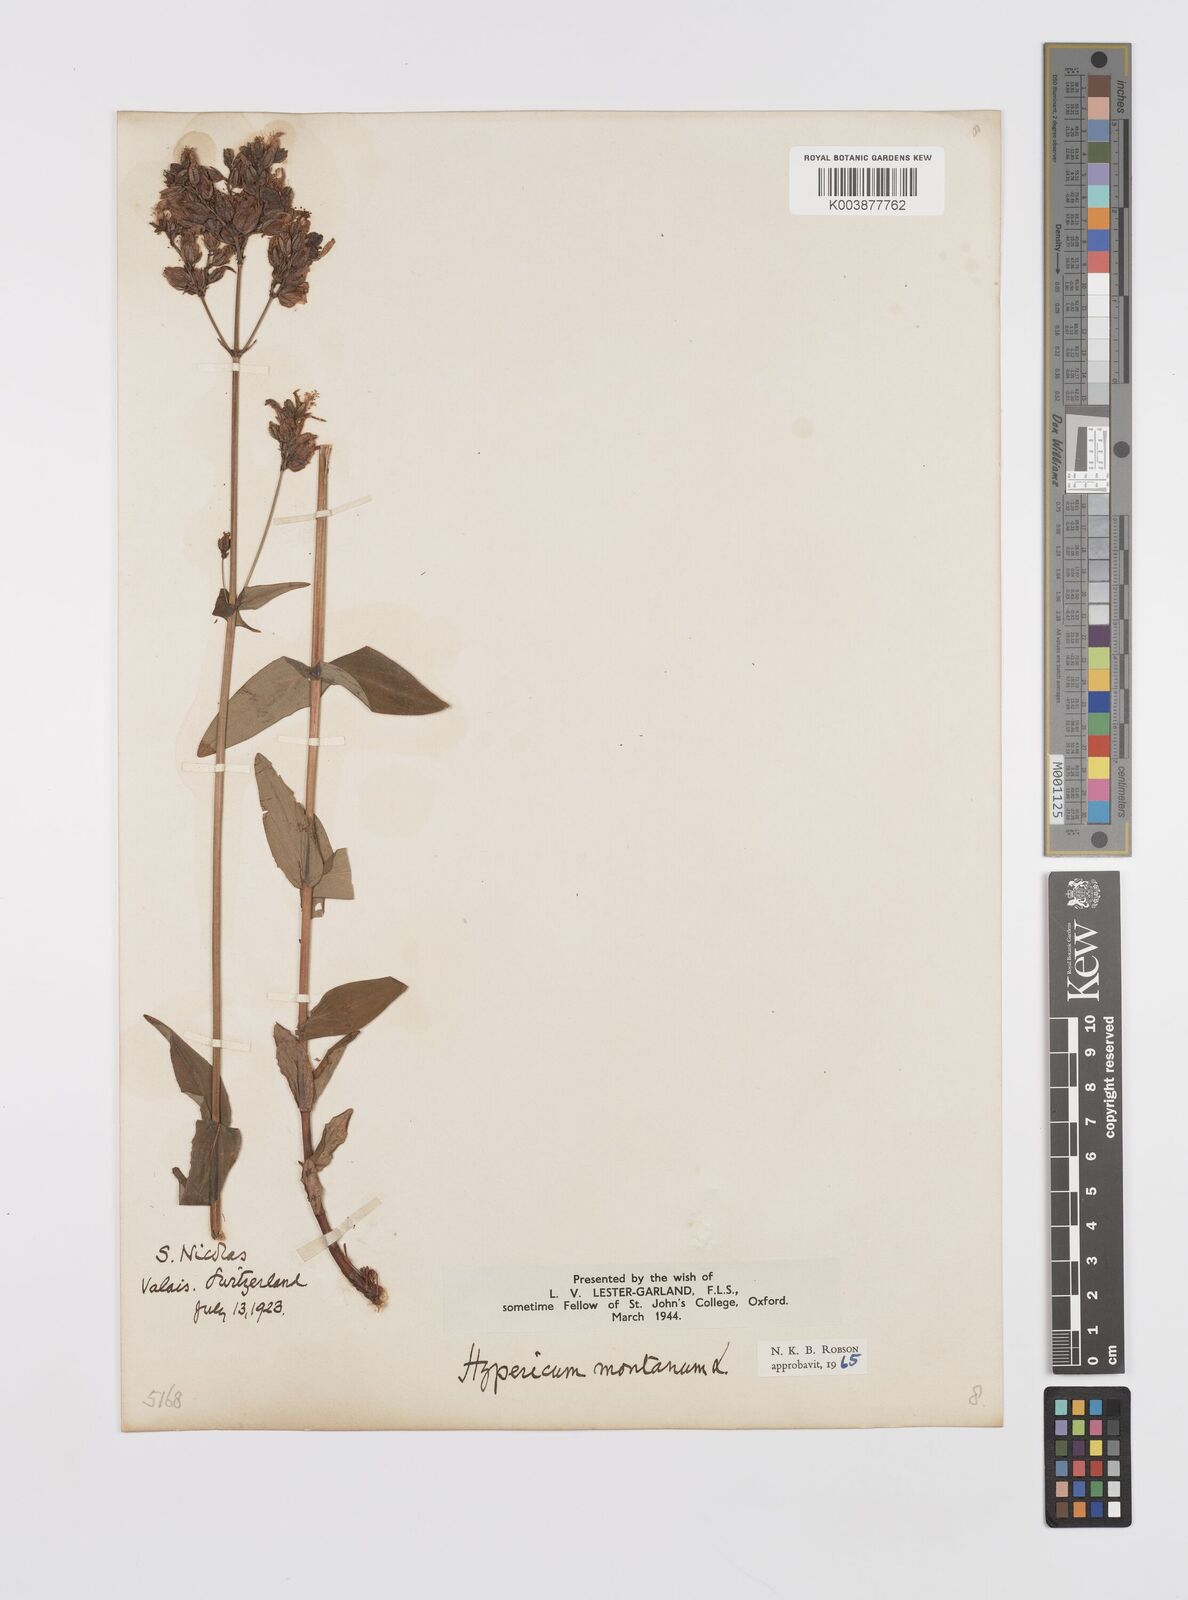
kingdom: Plantae
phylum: Tracheophyta
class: Magnoliopsida
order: Malpighiales
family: Hypericaceae
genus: Hypericum
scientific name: Hypericum montanum
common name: Pale st. john's-wort
